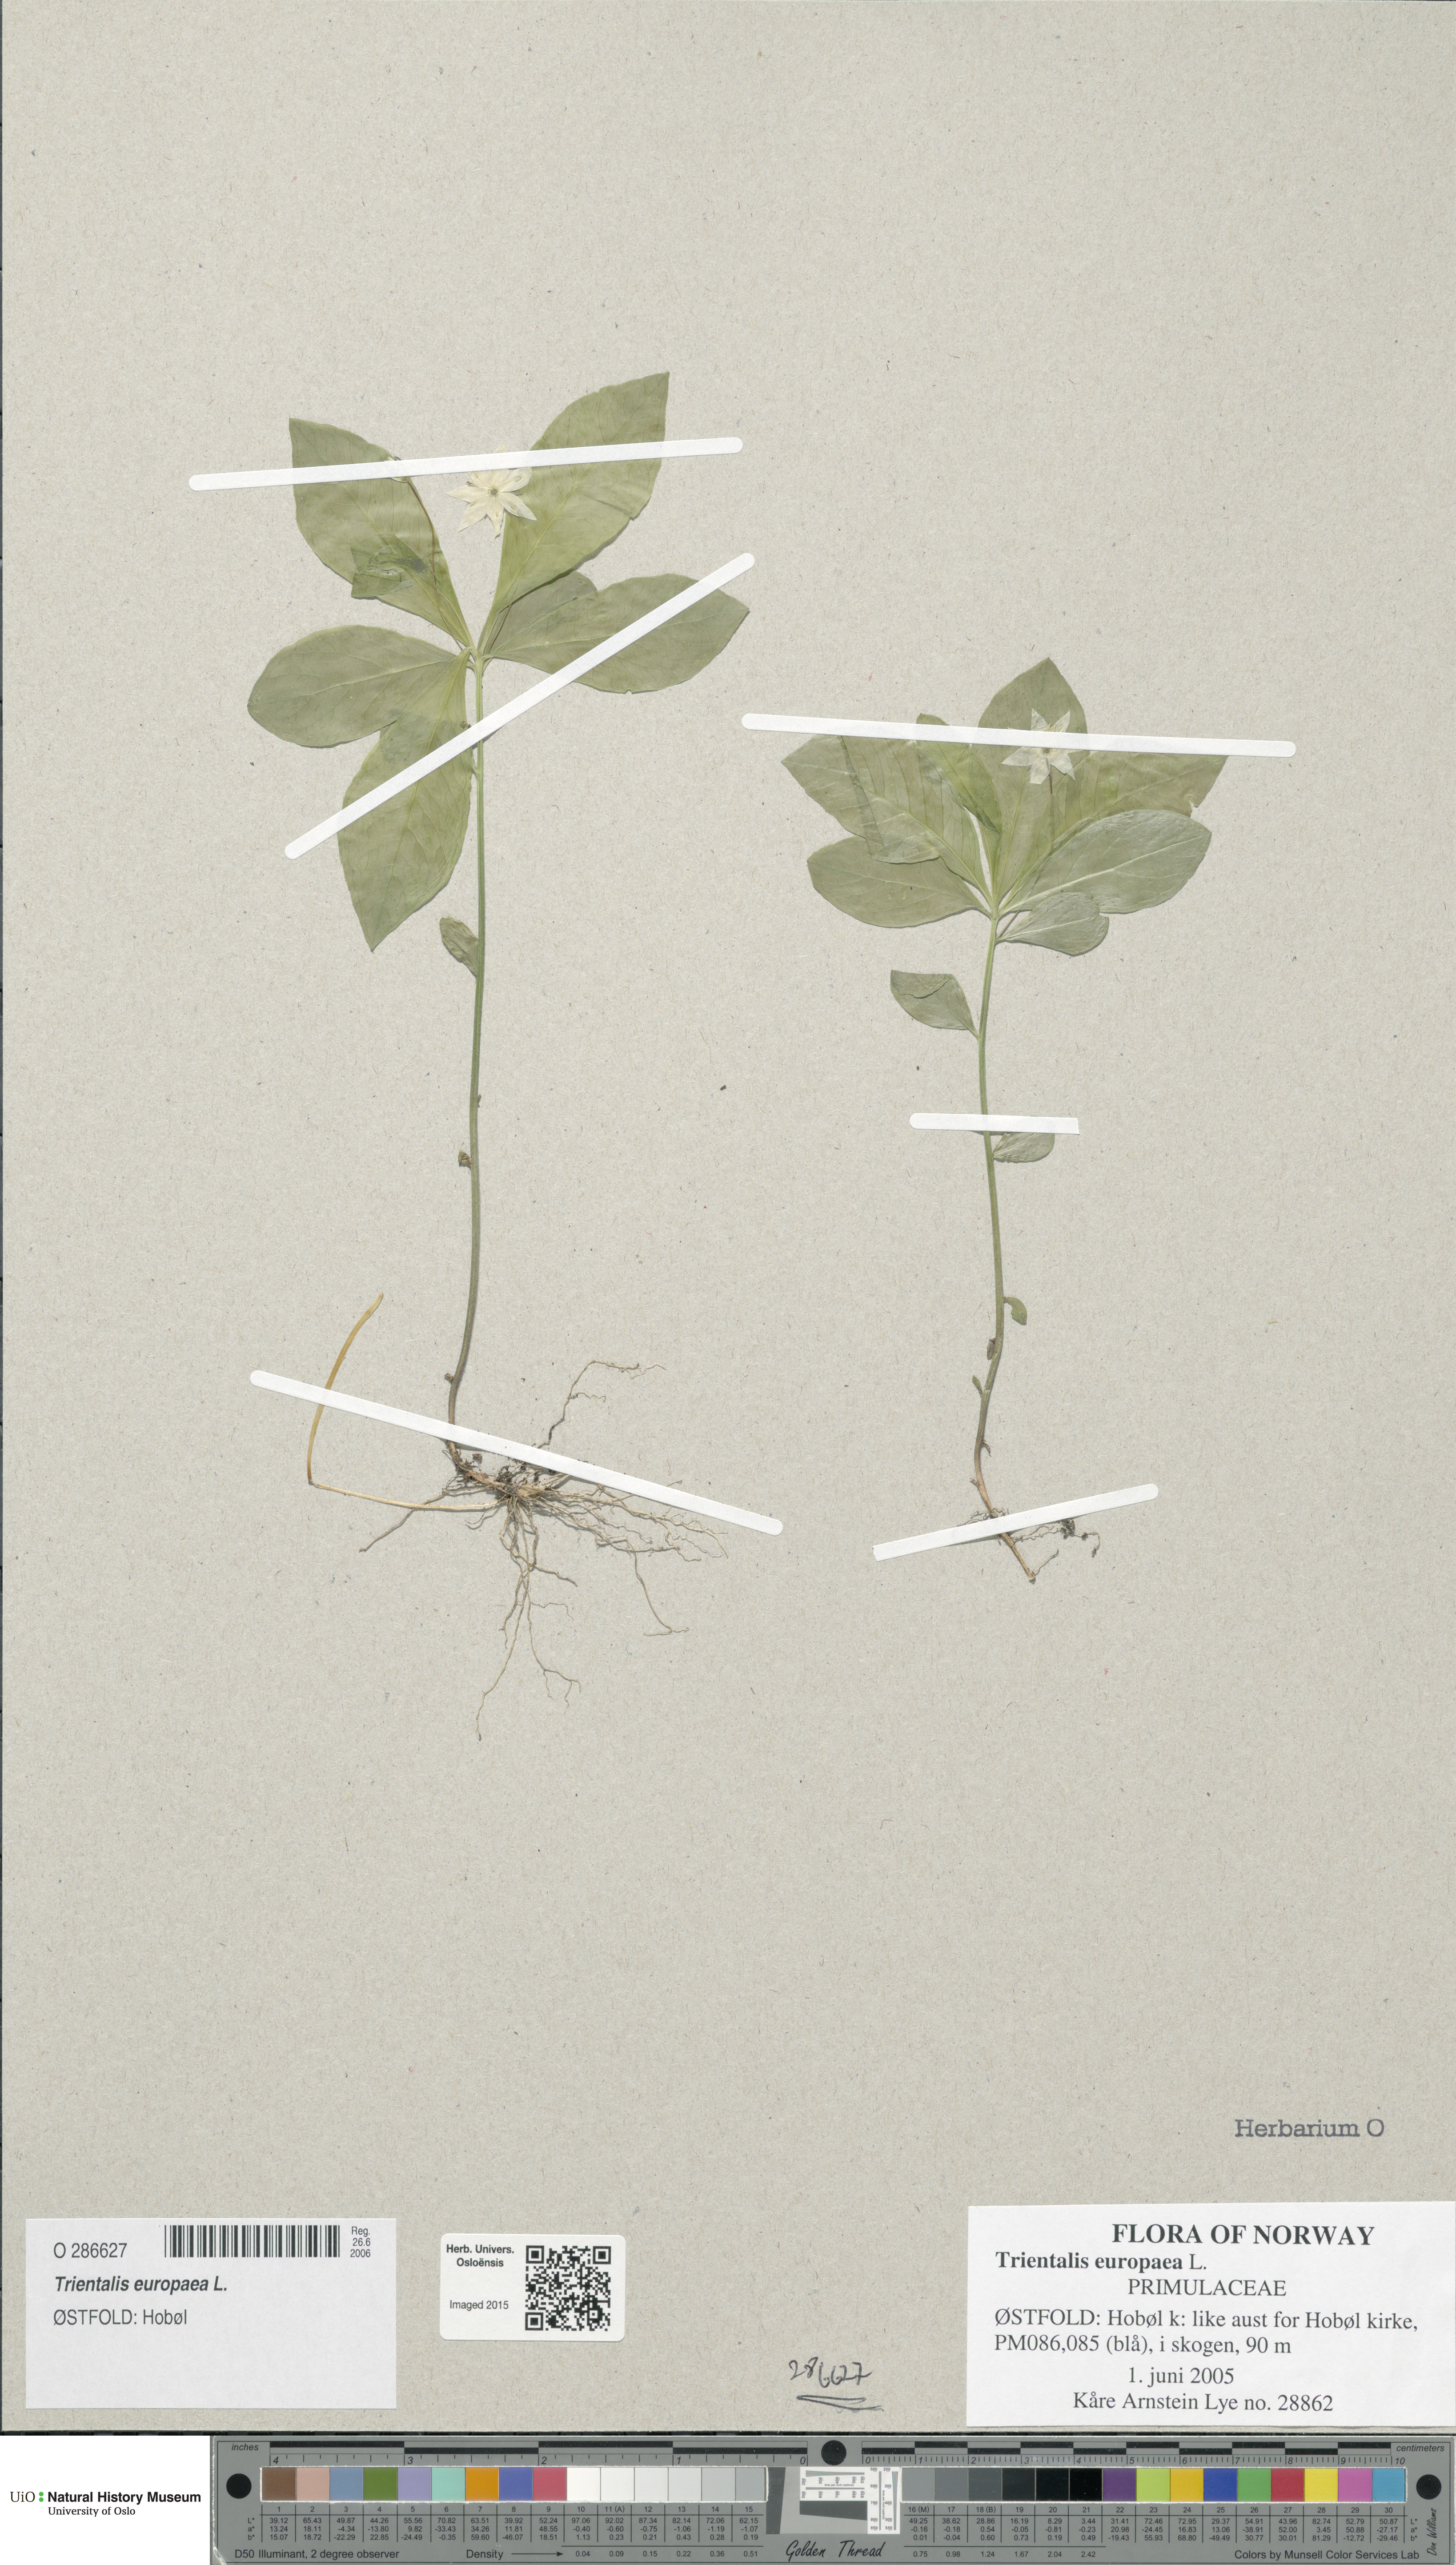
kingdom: Plantae
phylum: Tracheophyta
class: Magnoliopsida
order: Ericales
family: Primulaceae
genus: Lysimachia
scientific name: Lysimachia europaea
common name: Arctic starflower
